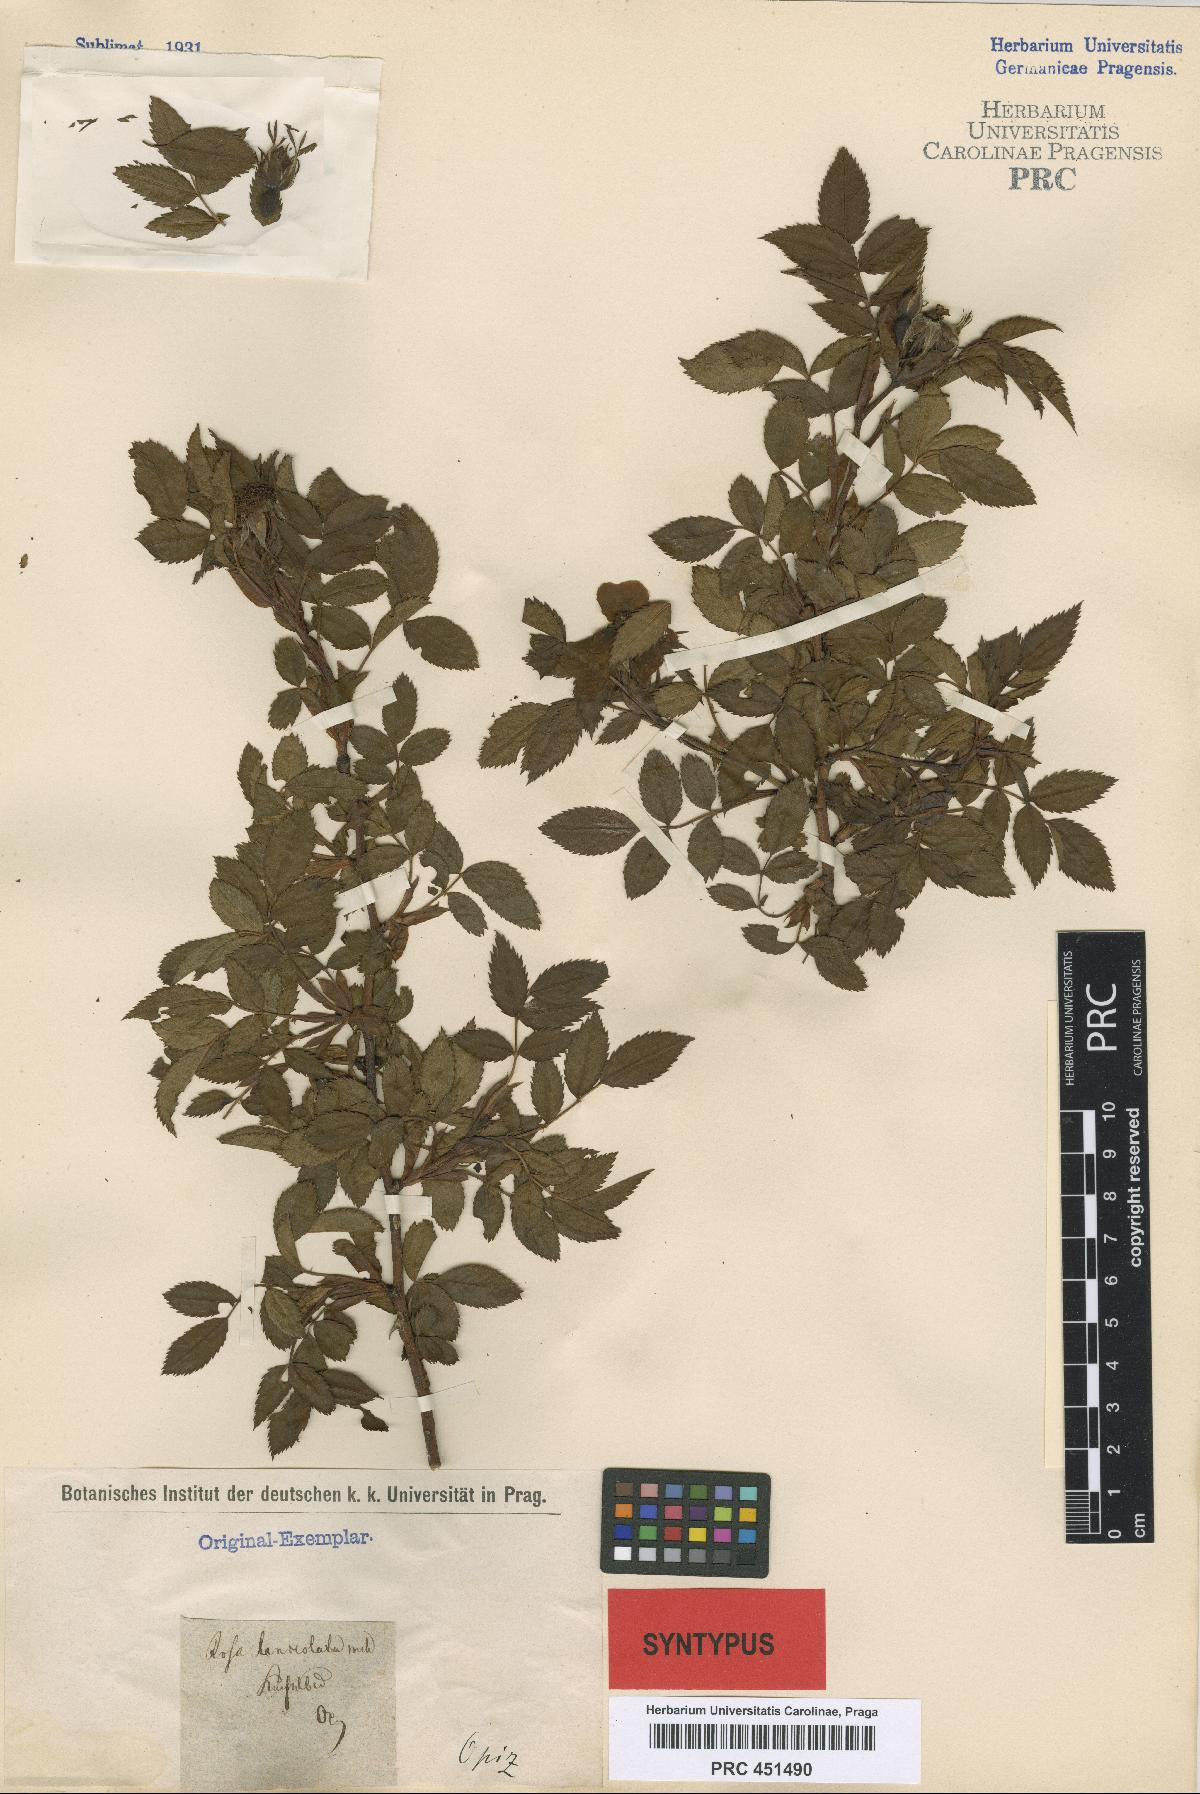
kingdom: Plantae
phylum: Tracheophyta
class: Magnoliopsida
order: Rosales
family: Rosaceae
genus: Rosa
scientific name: Rosa corymbifera
